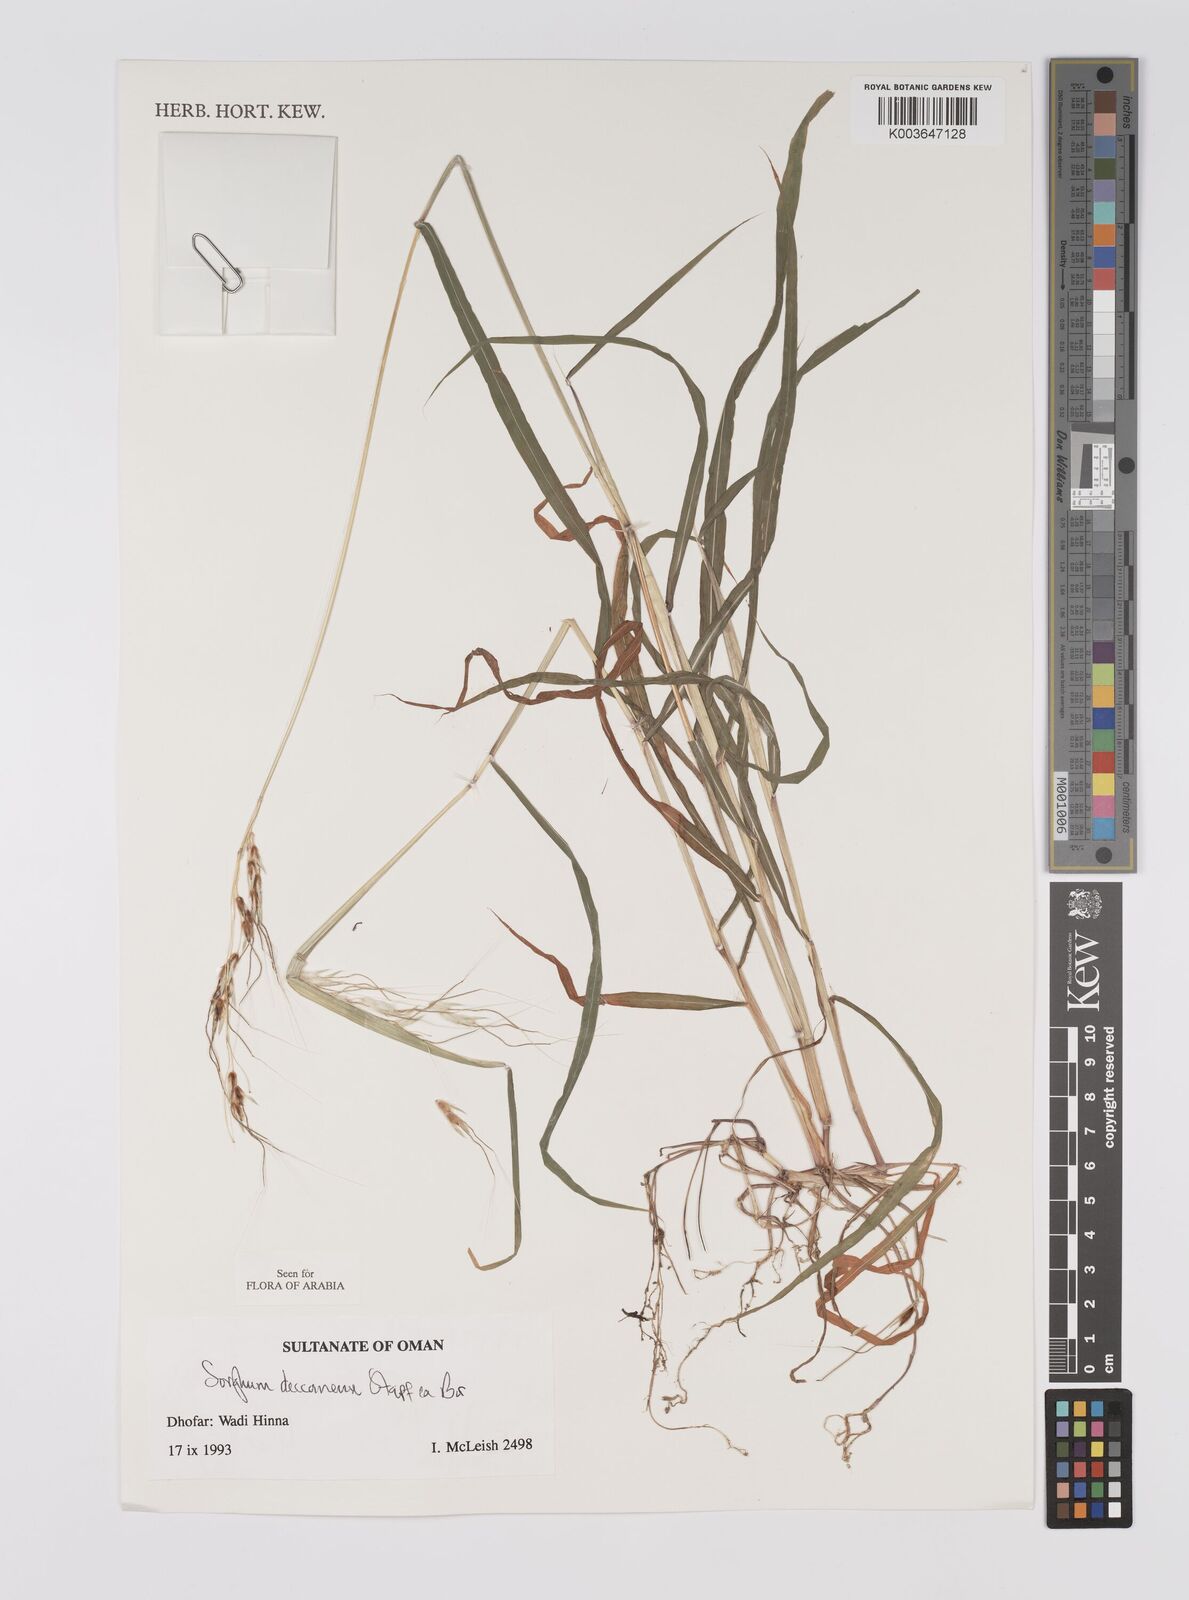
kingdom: Plantae
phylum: Tracheophyta
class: Liliopsida
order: Poales
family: Poaceae
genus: Sarga
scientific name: Sarga purpureosericea
